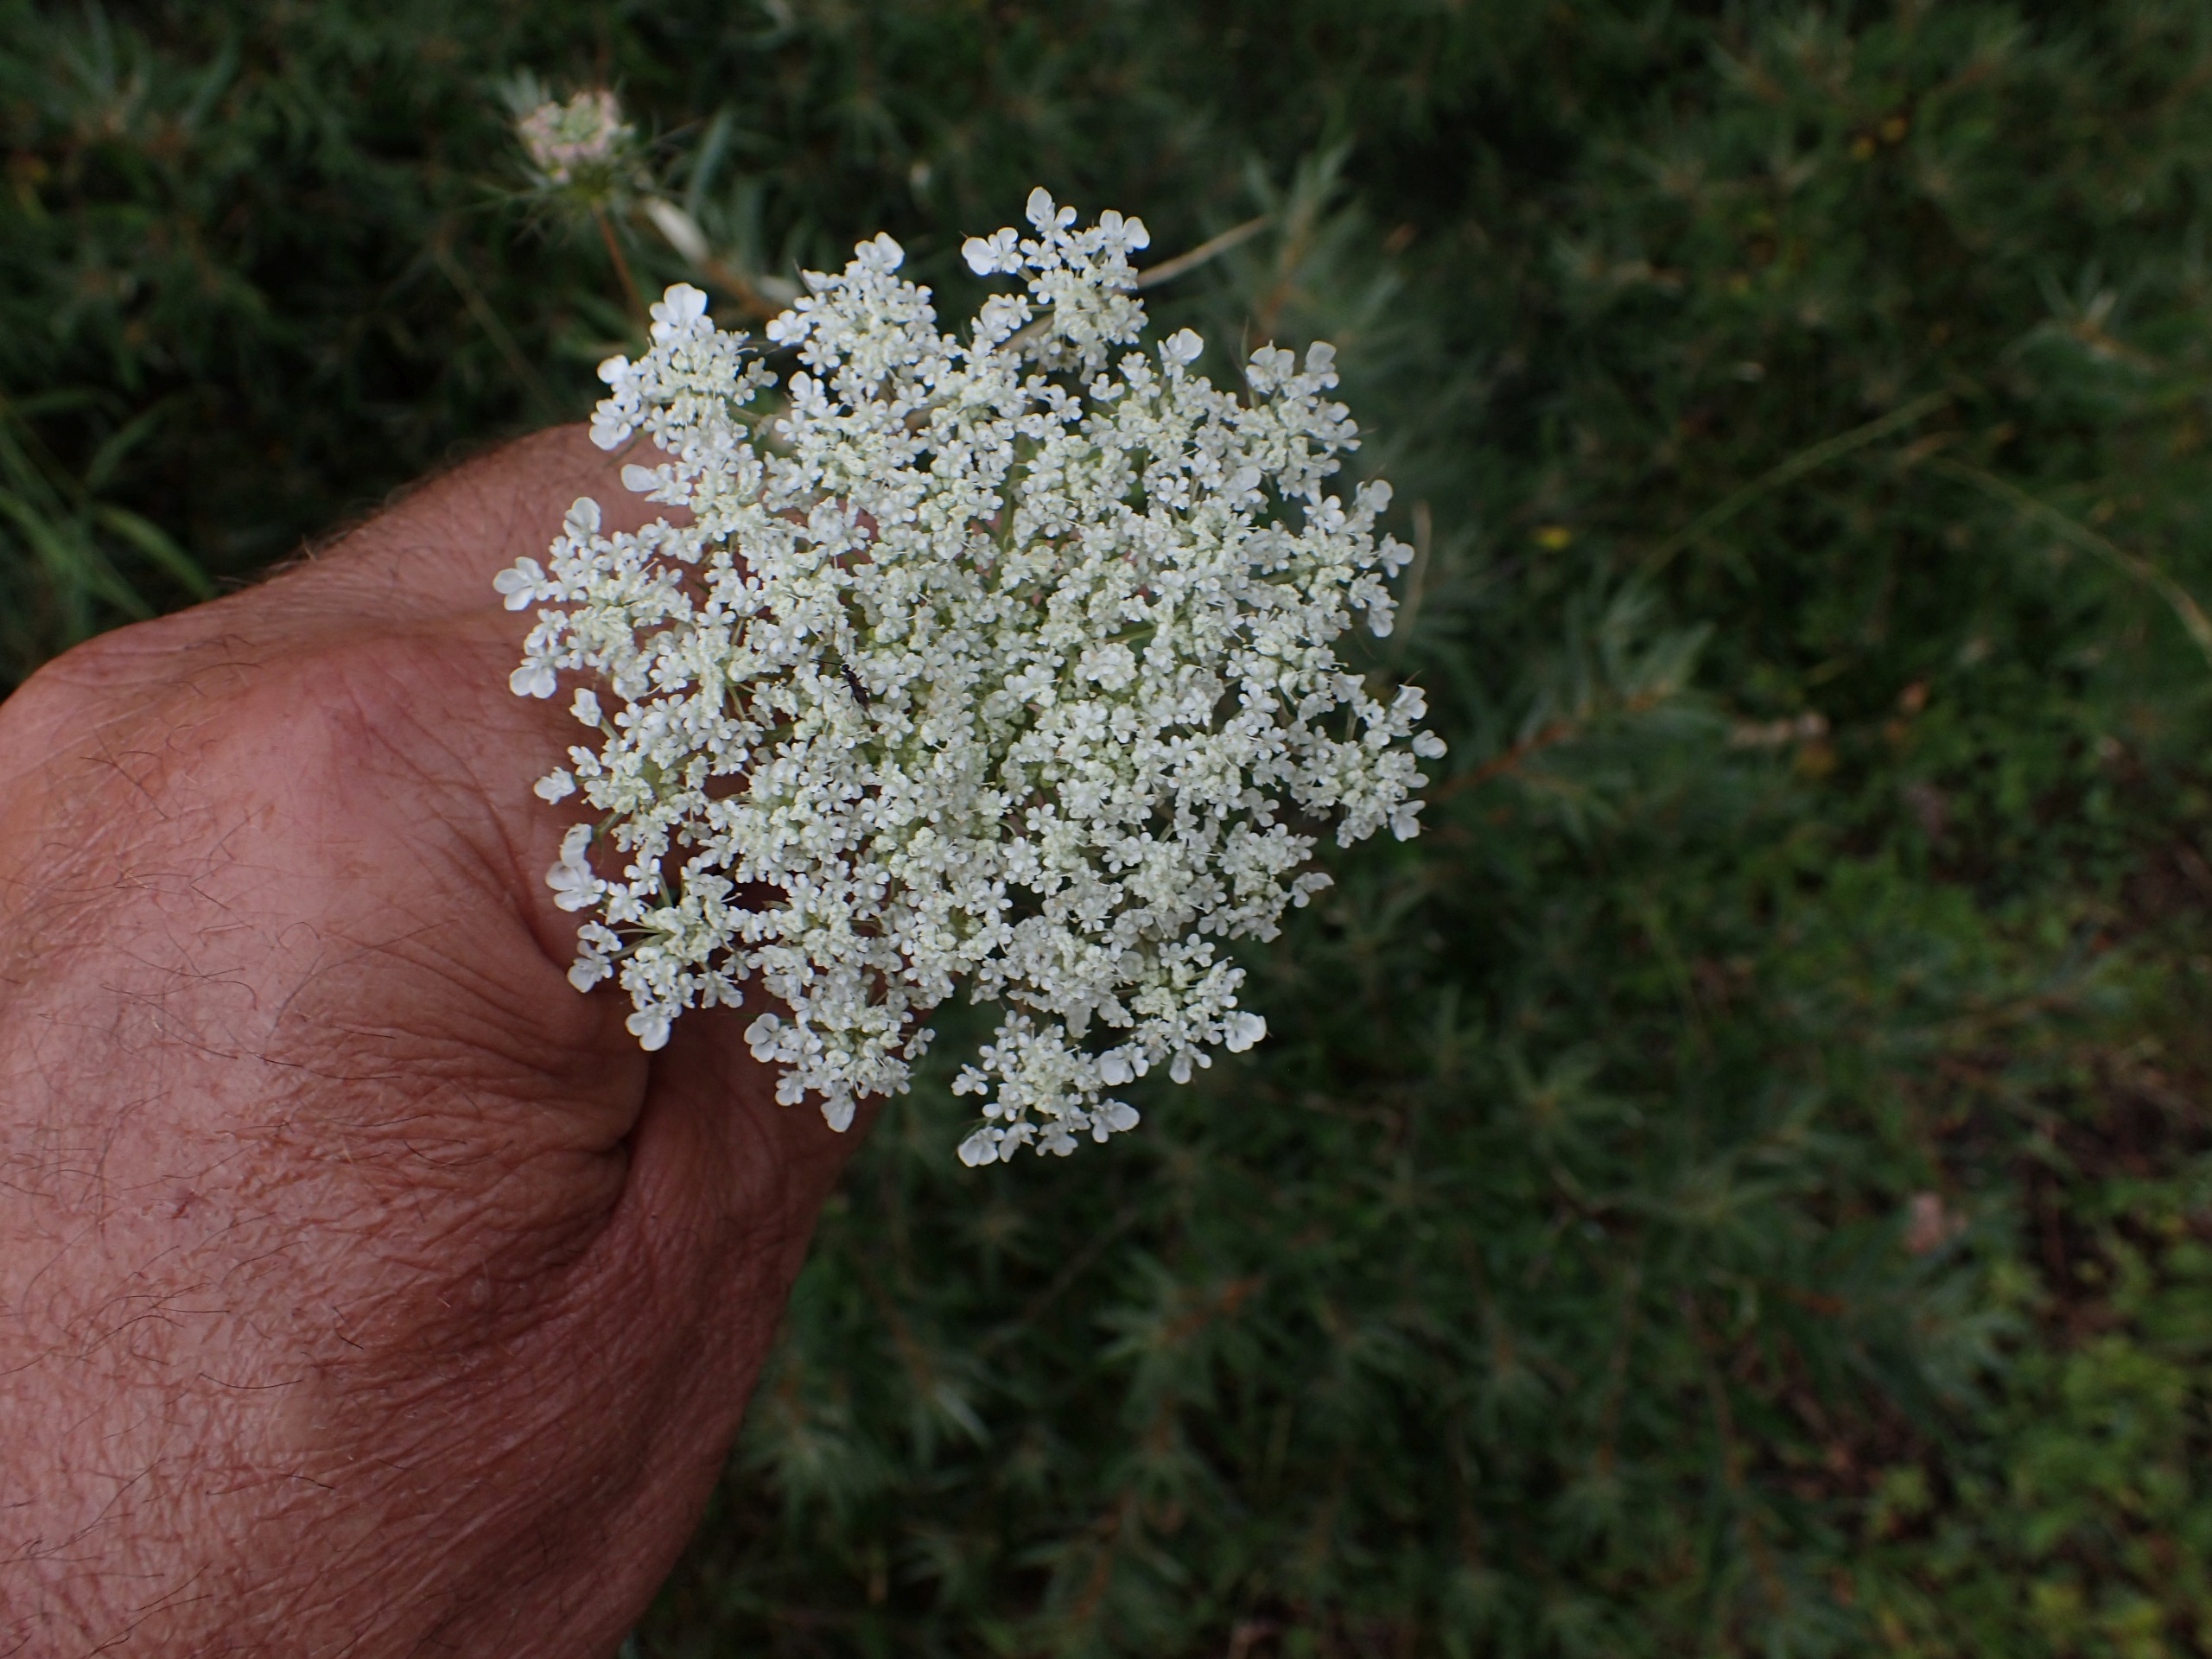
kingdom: Plantae
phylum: Tracheophyta
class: Magnoliopsida
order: Apiales
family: Apiaceae
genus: Daucus
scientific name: Daucus carota
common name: Gulerod
